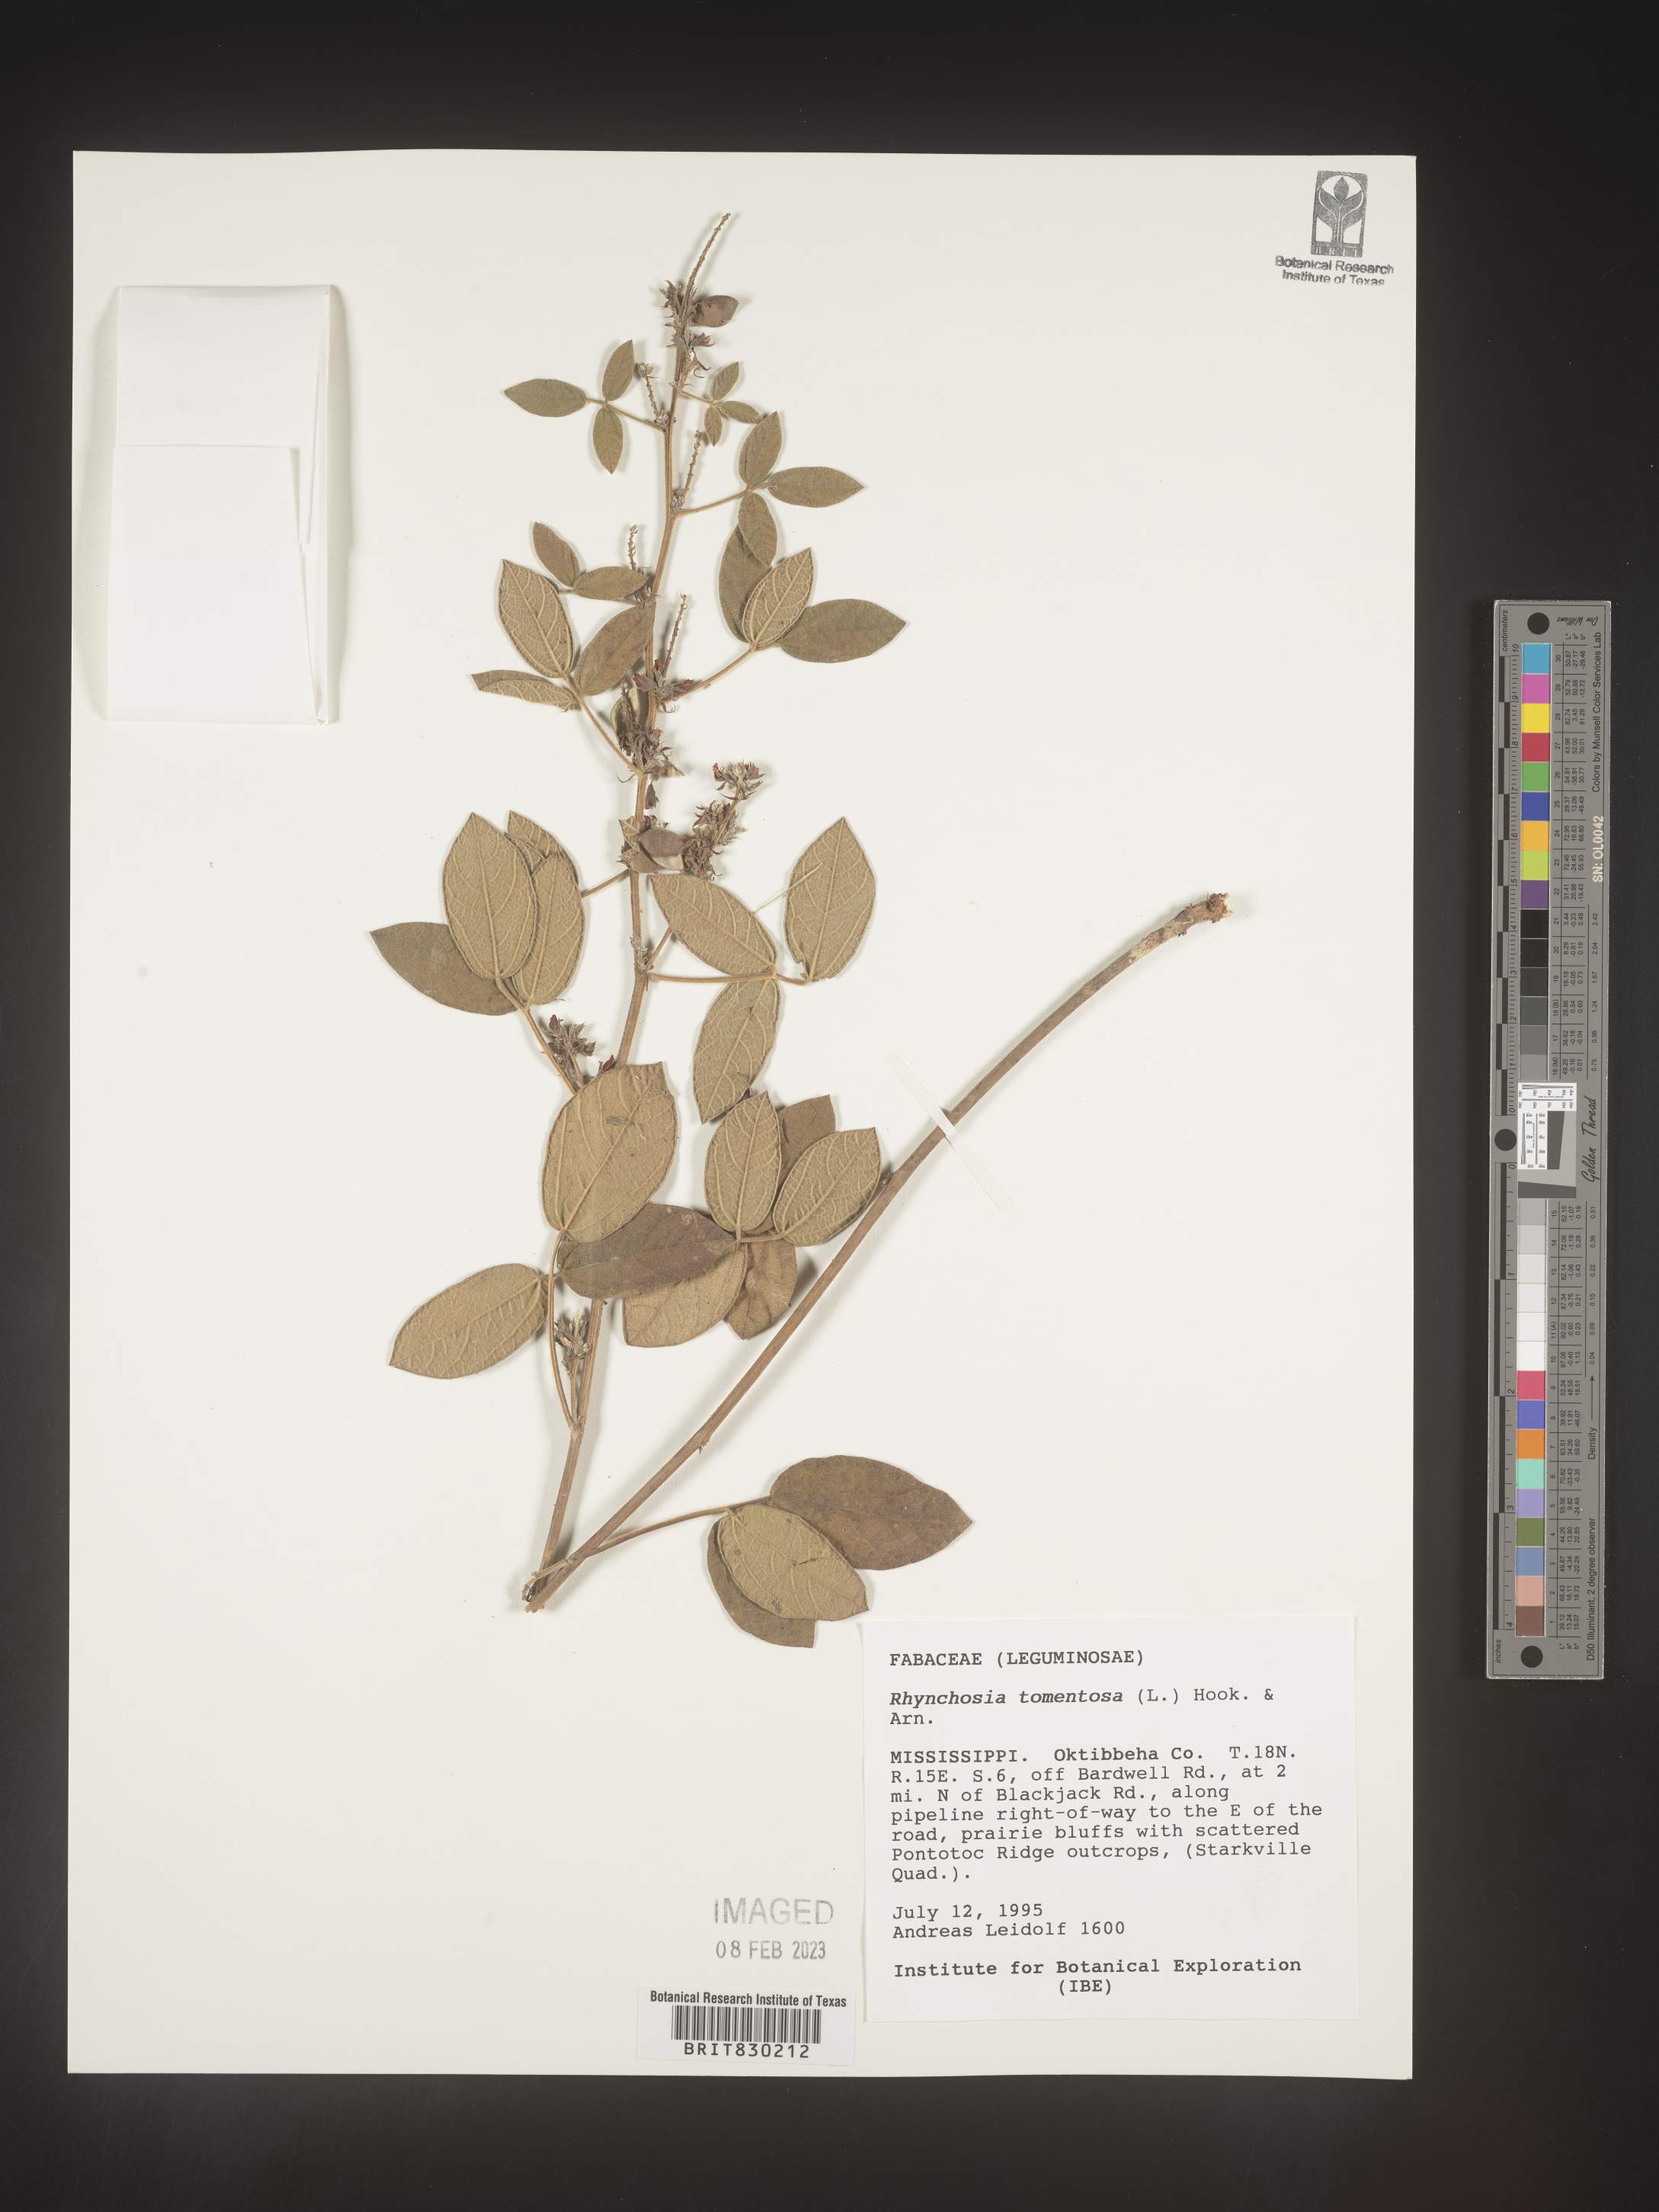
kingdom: Plantae
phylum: Tracheophyta
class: Magnoliopsida
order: Fabales
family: Fabaceae
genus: Rhynchosia
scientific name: Rhynchosia rothii
